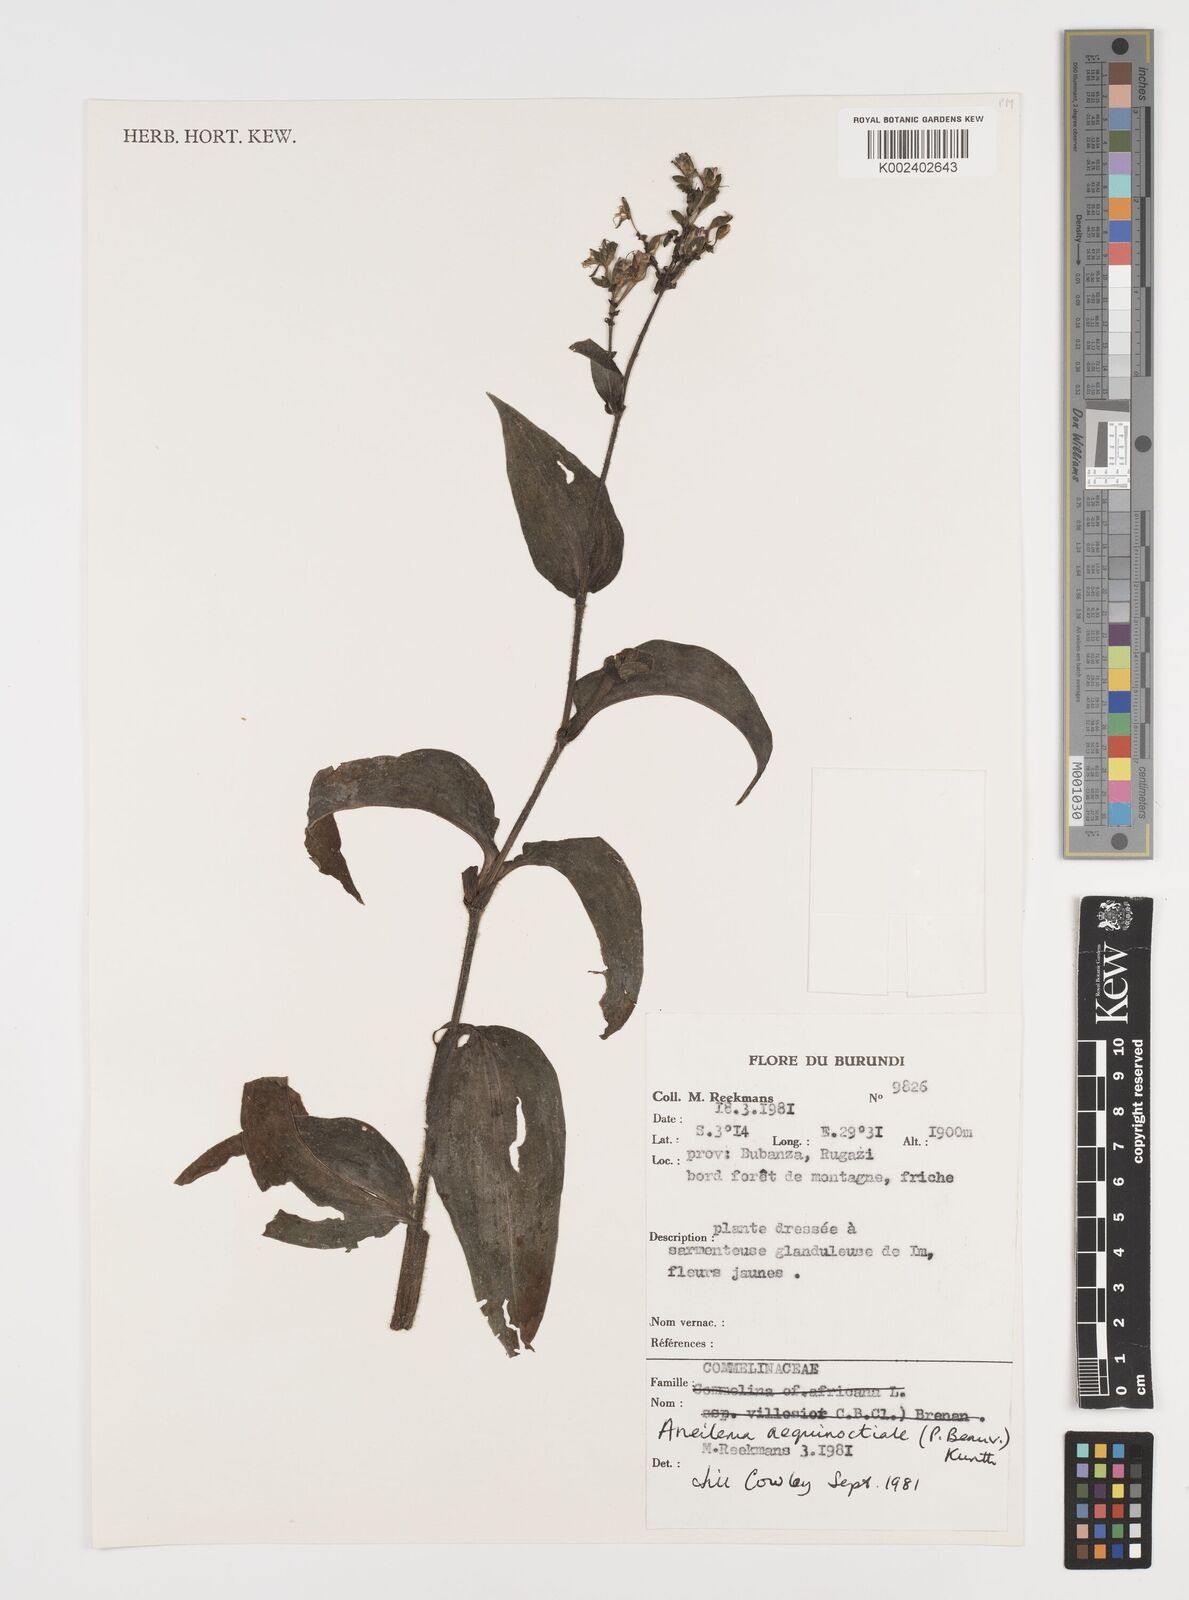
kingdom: Plantae
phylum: Tracheophyta
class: Liliopsida
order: Commelinales
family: Commelinaceae
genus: Aneilema
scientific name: Aneilema aequinoctiale
